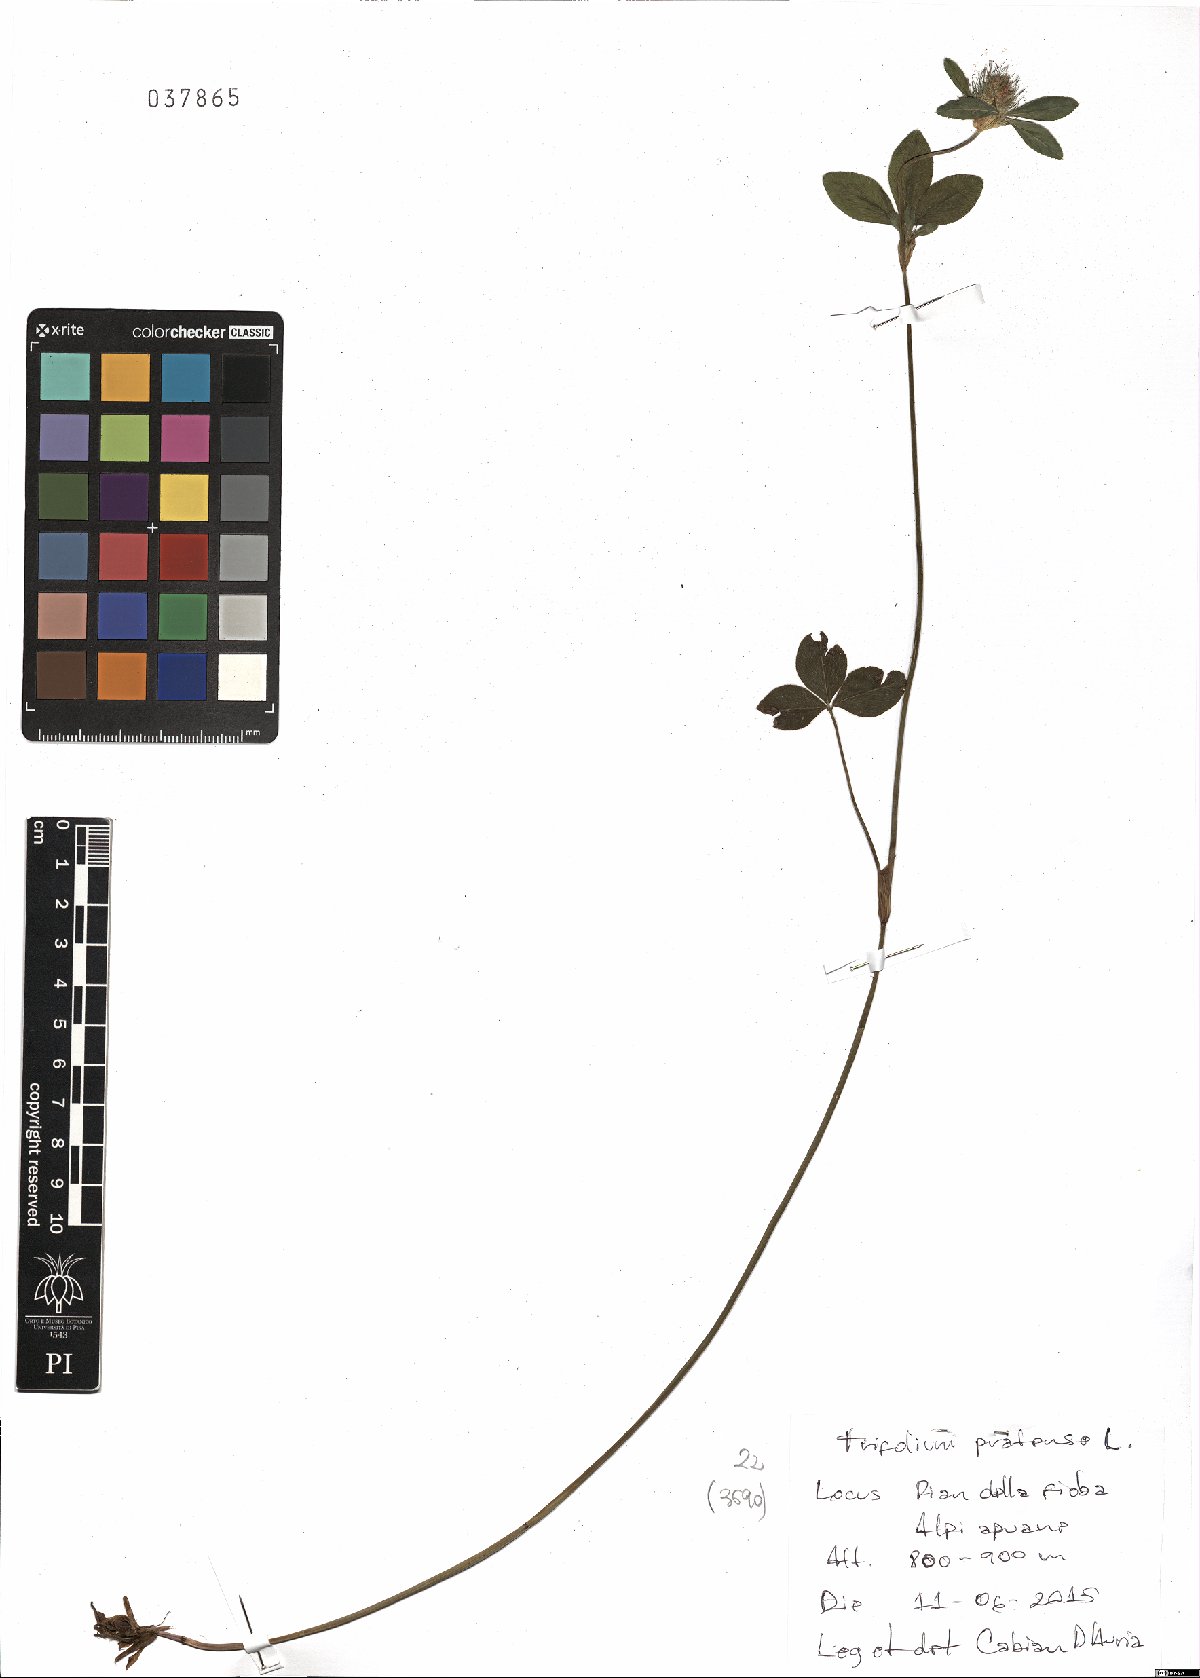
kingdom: Plantae
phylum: Tracheophyta
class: Magnoliopsida
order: Fabales
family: Fabaceae
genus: Trifolium
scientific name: Trifolium pratense
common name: Red clover
